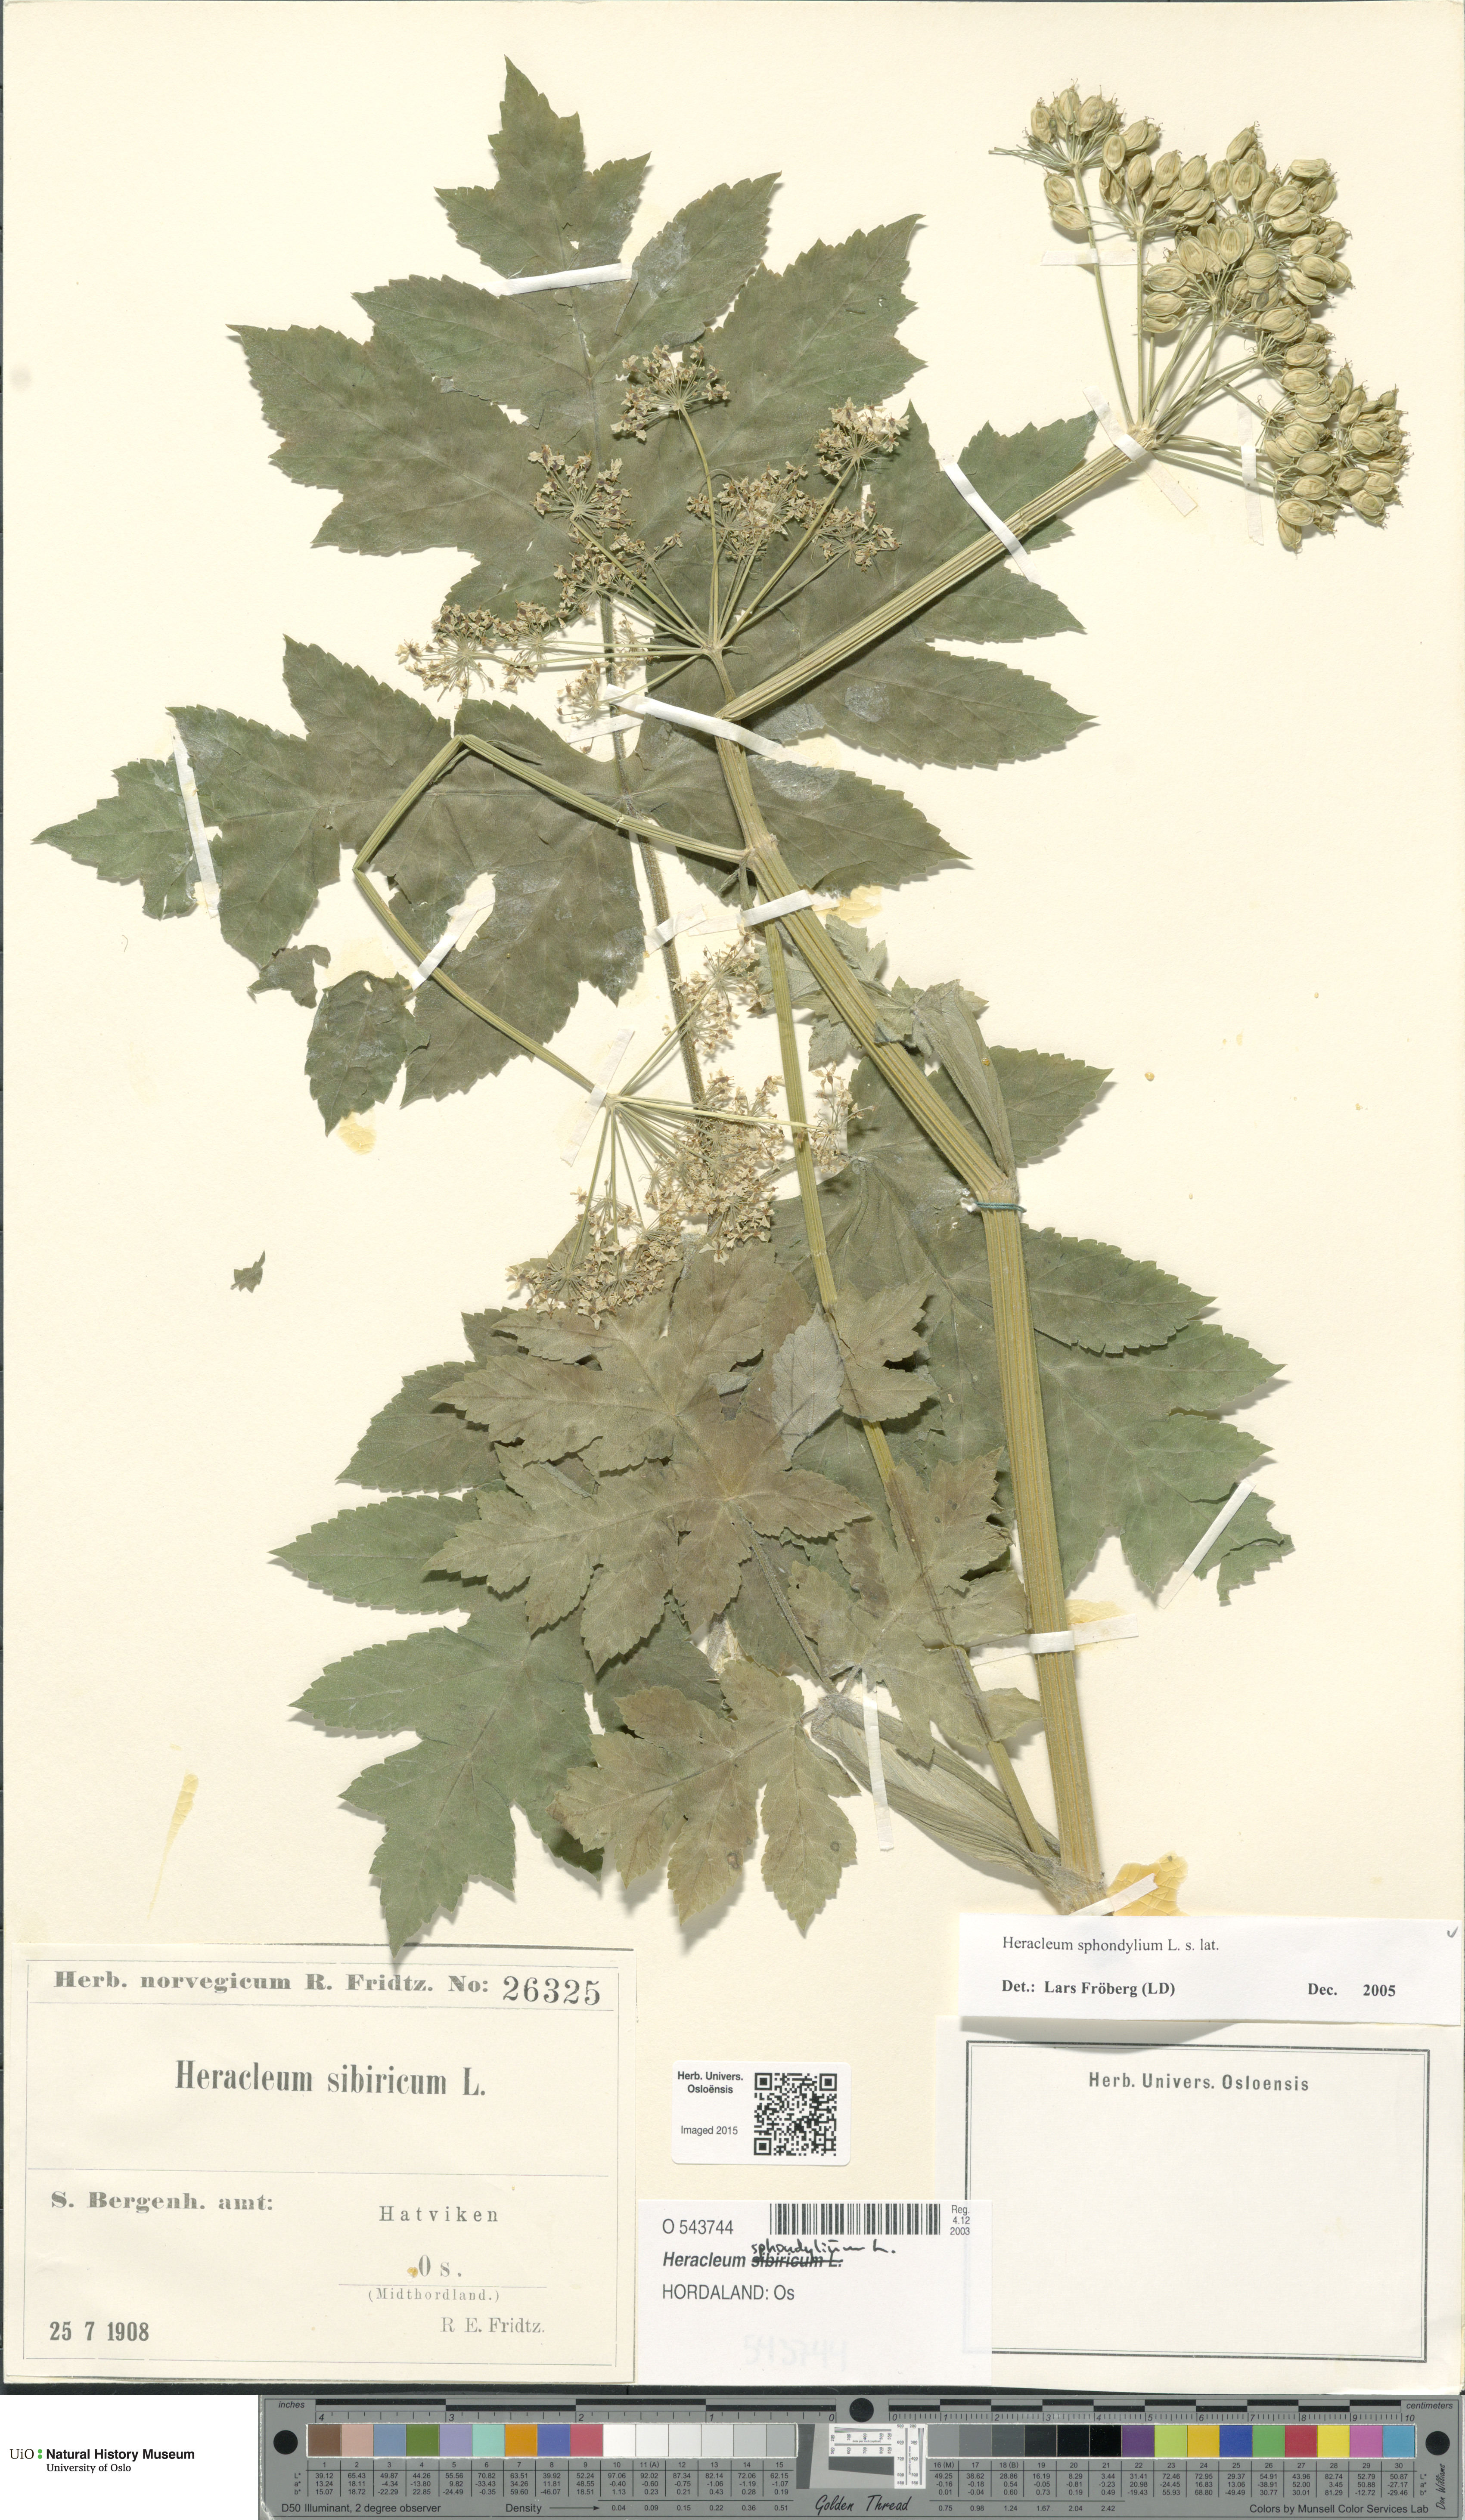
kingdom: Plantae
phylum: Tracheophyta
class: Magnoliopsida
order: Apiales
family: Apiaceae
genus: Heracleum
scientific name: Heracleum sphondylium
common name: Hogweed
